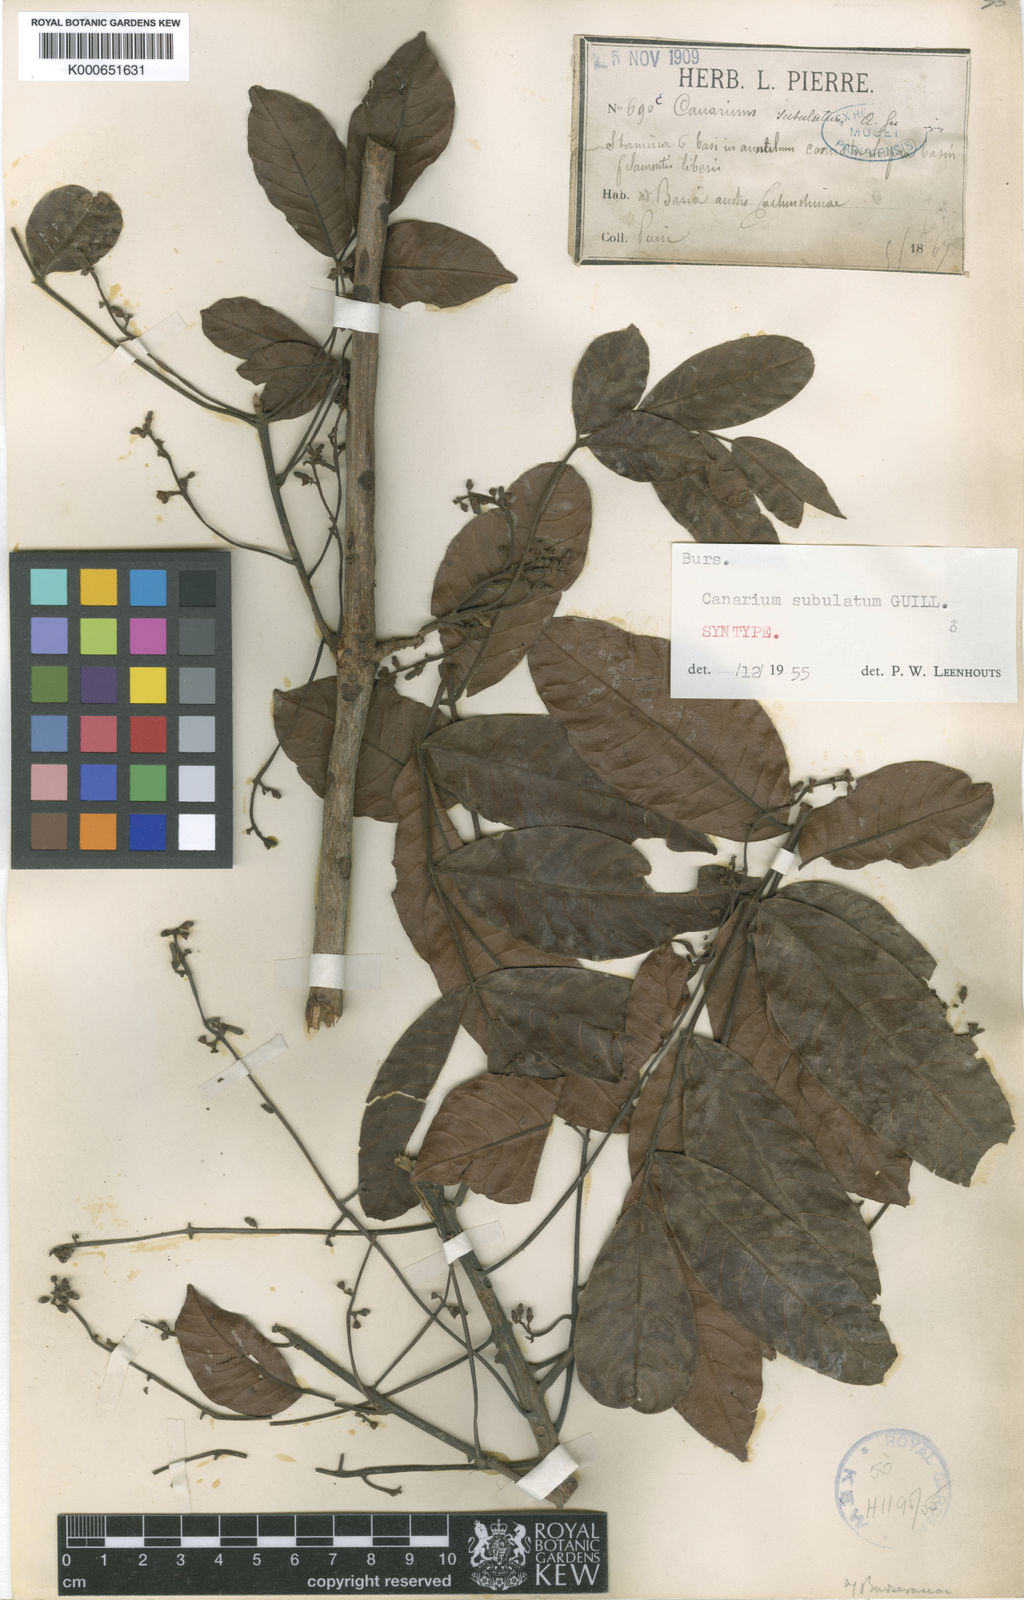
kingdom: Plantae
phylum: Tracheophyta
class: Magnoliopsida
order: Sapindales
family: Burseraceae
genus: Canarium
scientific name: Canarium subulatum
